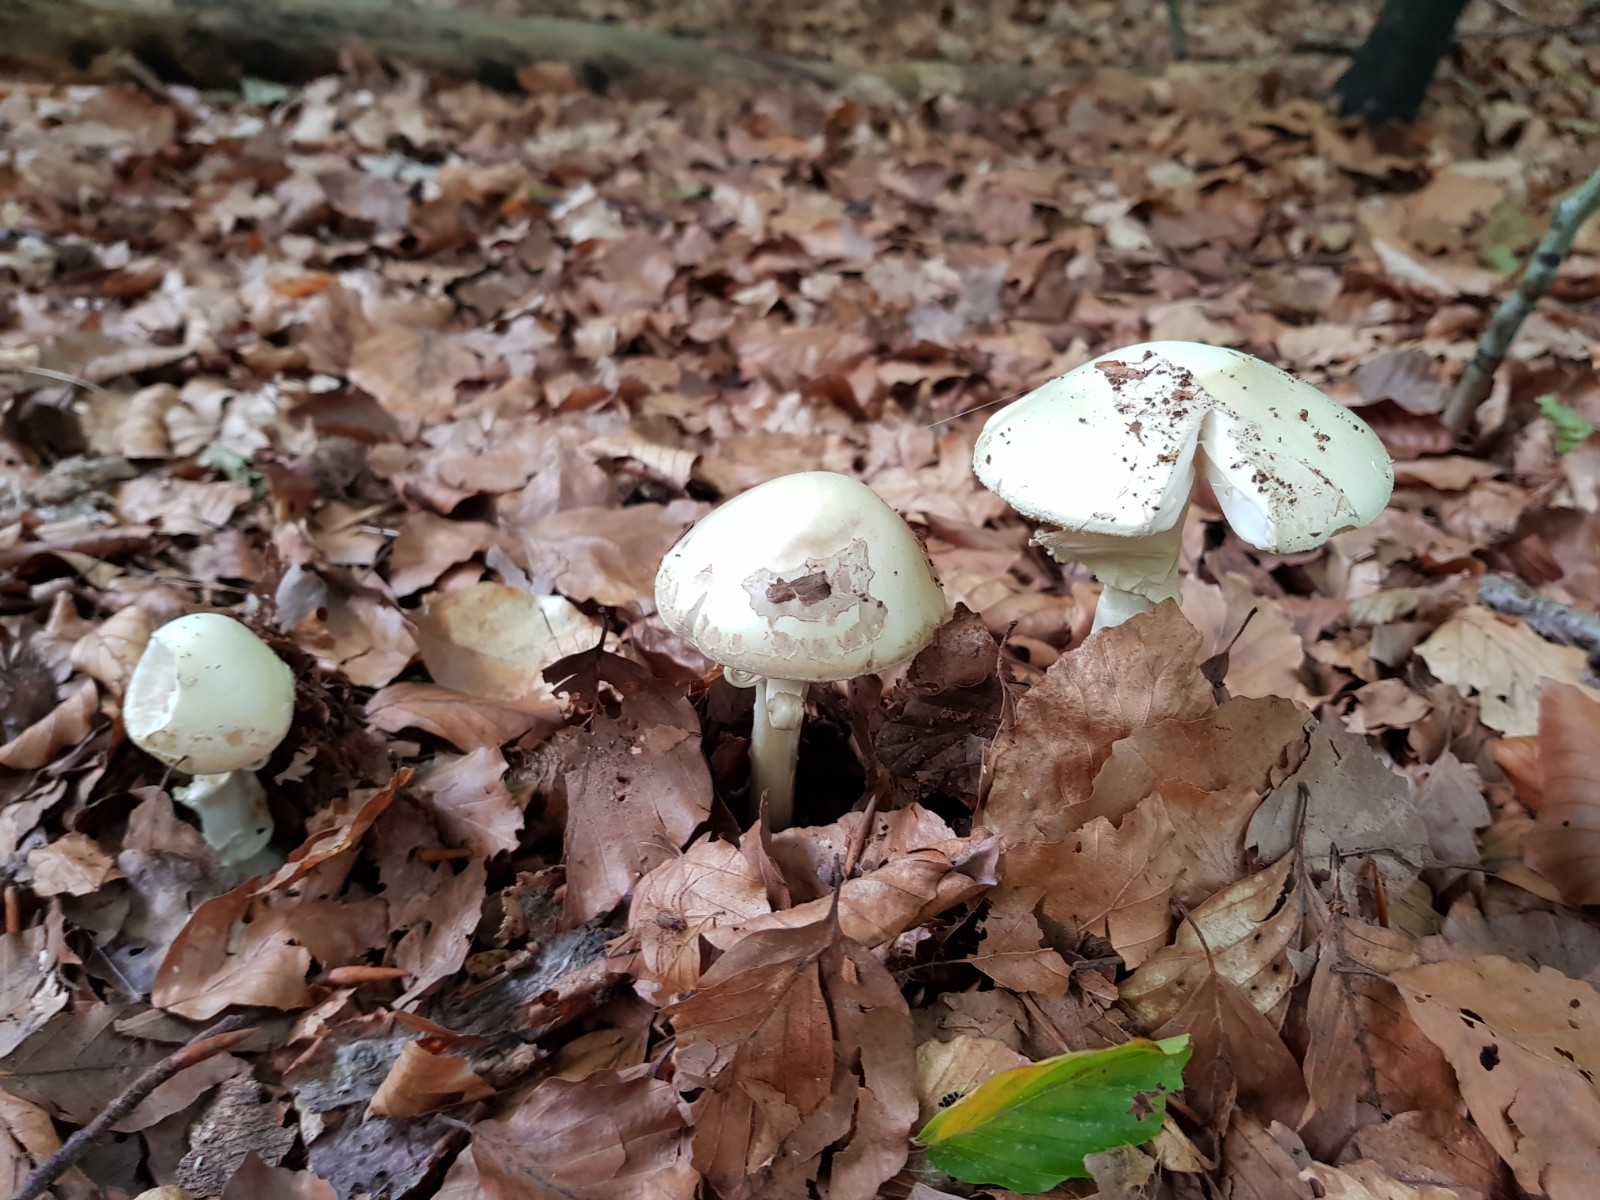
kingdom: Fungi
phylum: Basidiomycota
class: Agaricomycetes
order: Agaricales
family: Amanitaceae
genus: Amanita
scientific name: Amanita citrina
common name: kugleknoldet fluesvamp
